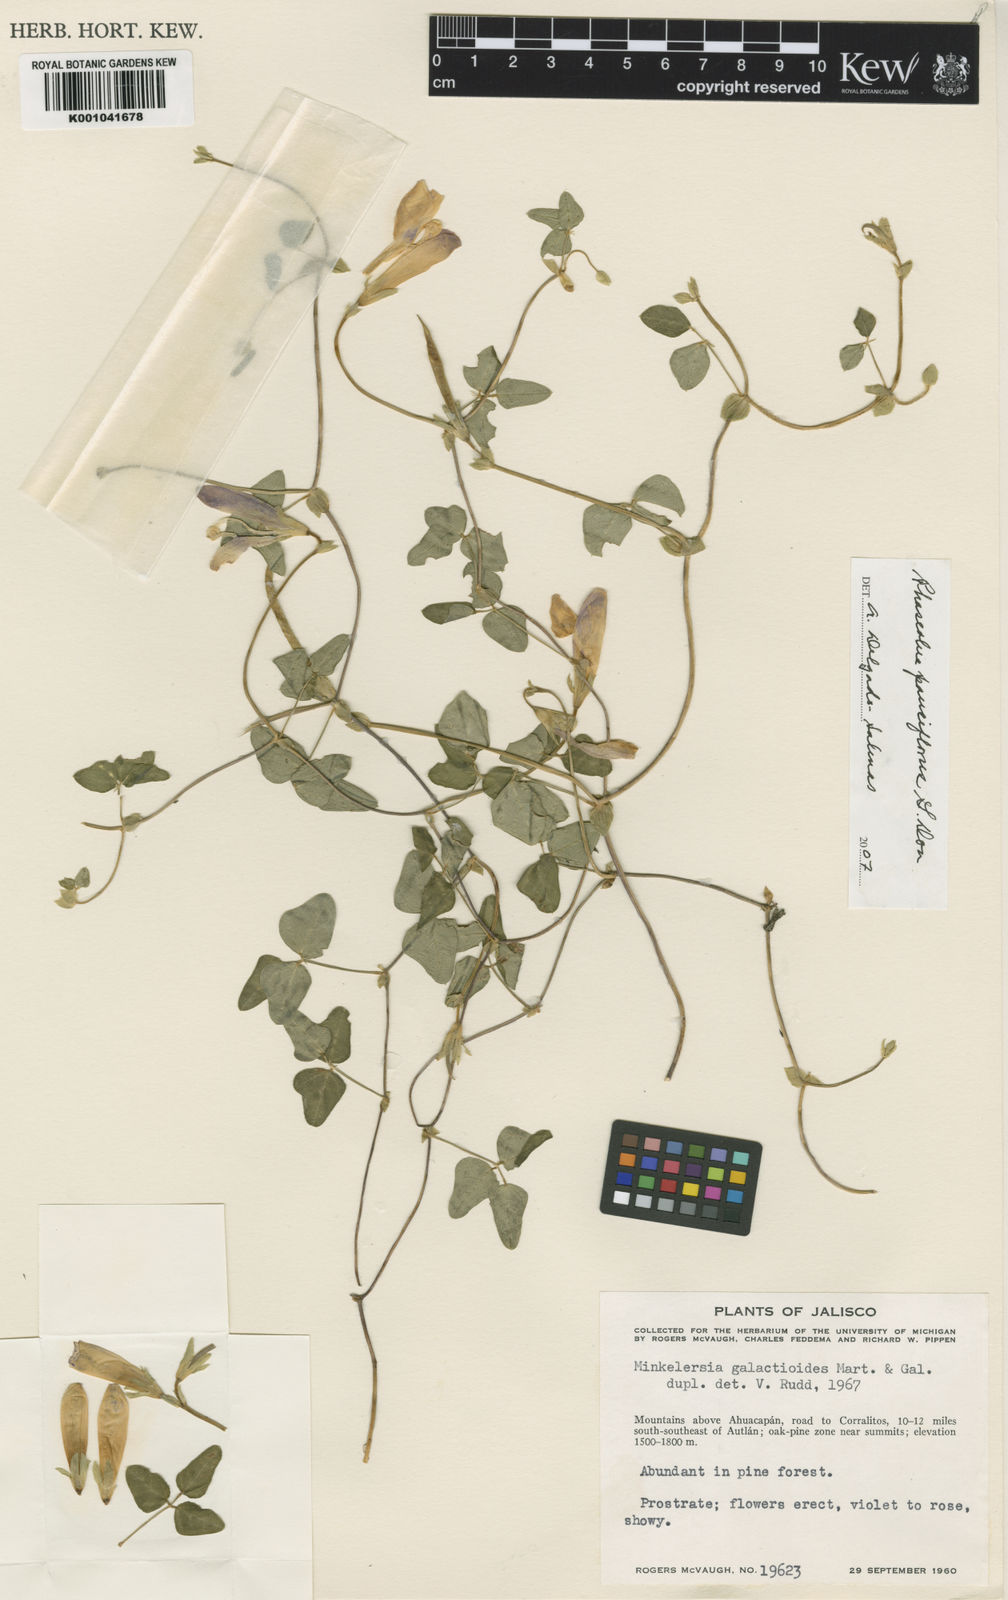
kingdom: Plantae
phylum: Tracheophyta
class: Magnoliopsida
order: Fabales
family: Fabaceae
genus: Phaseolus
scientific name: Phaseolus
